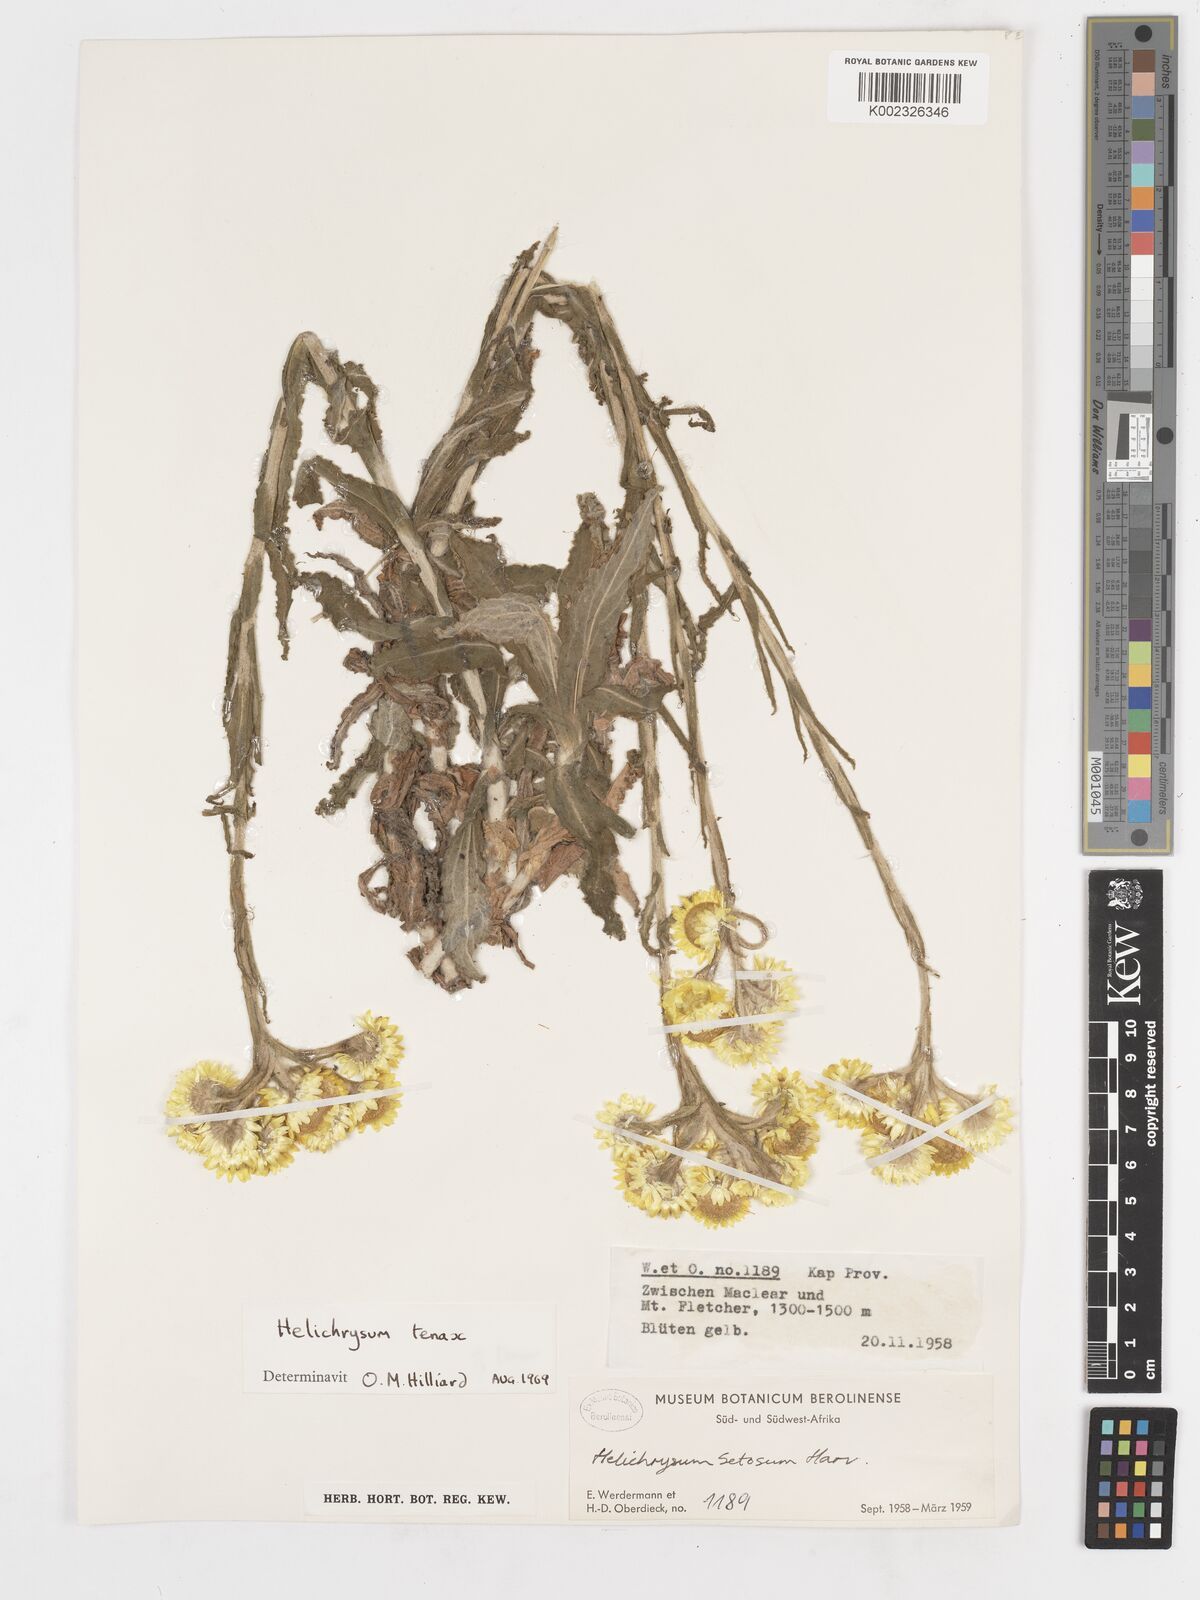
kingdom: Plantae
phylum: Tracheophyta
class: Magnoliopsida
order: Asterales
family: Asteraceae
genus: Helichrysum
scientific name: Helichrysum tenax
